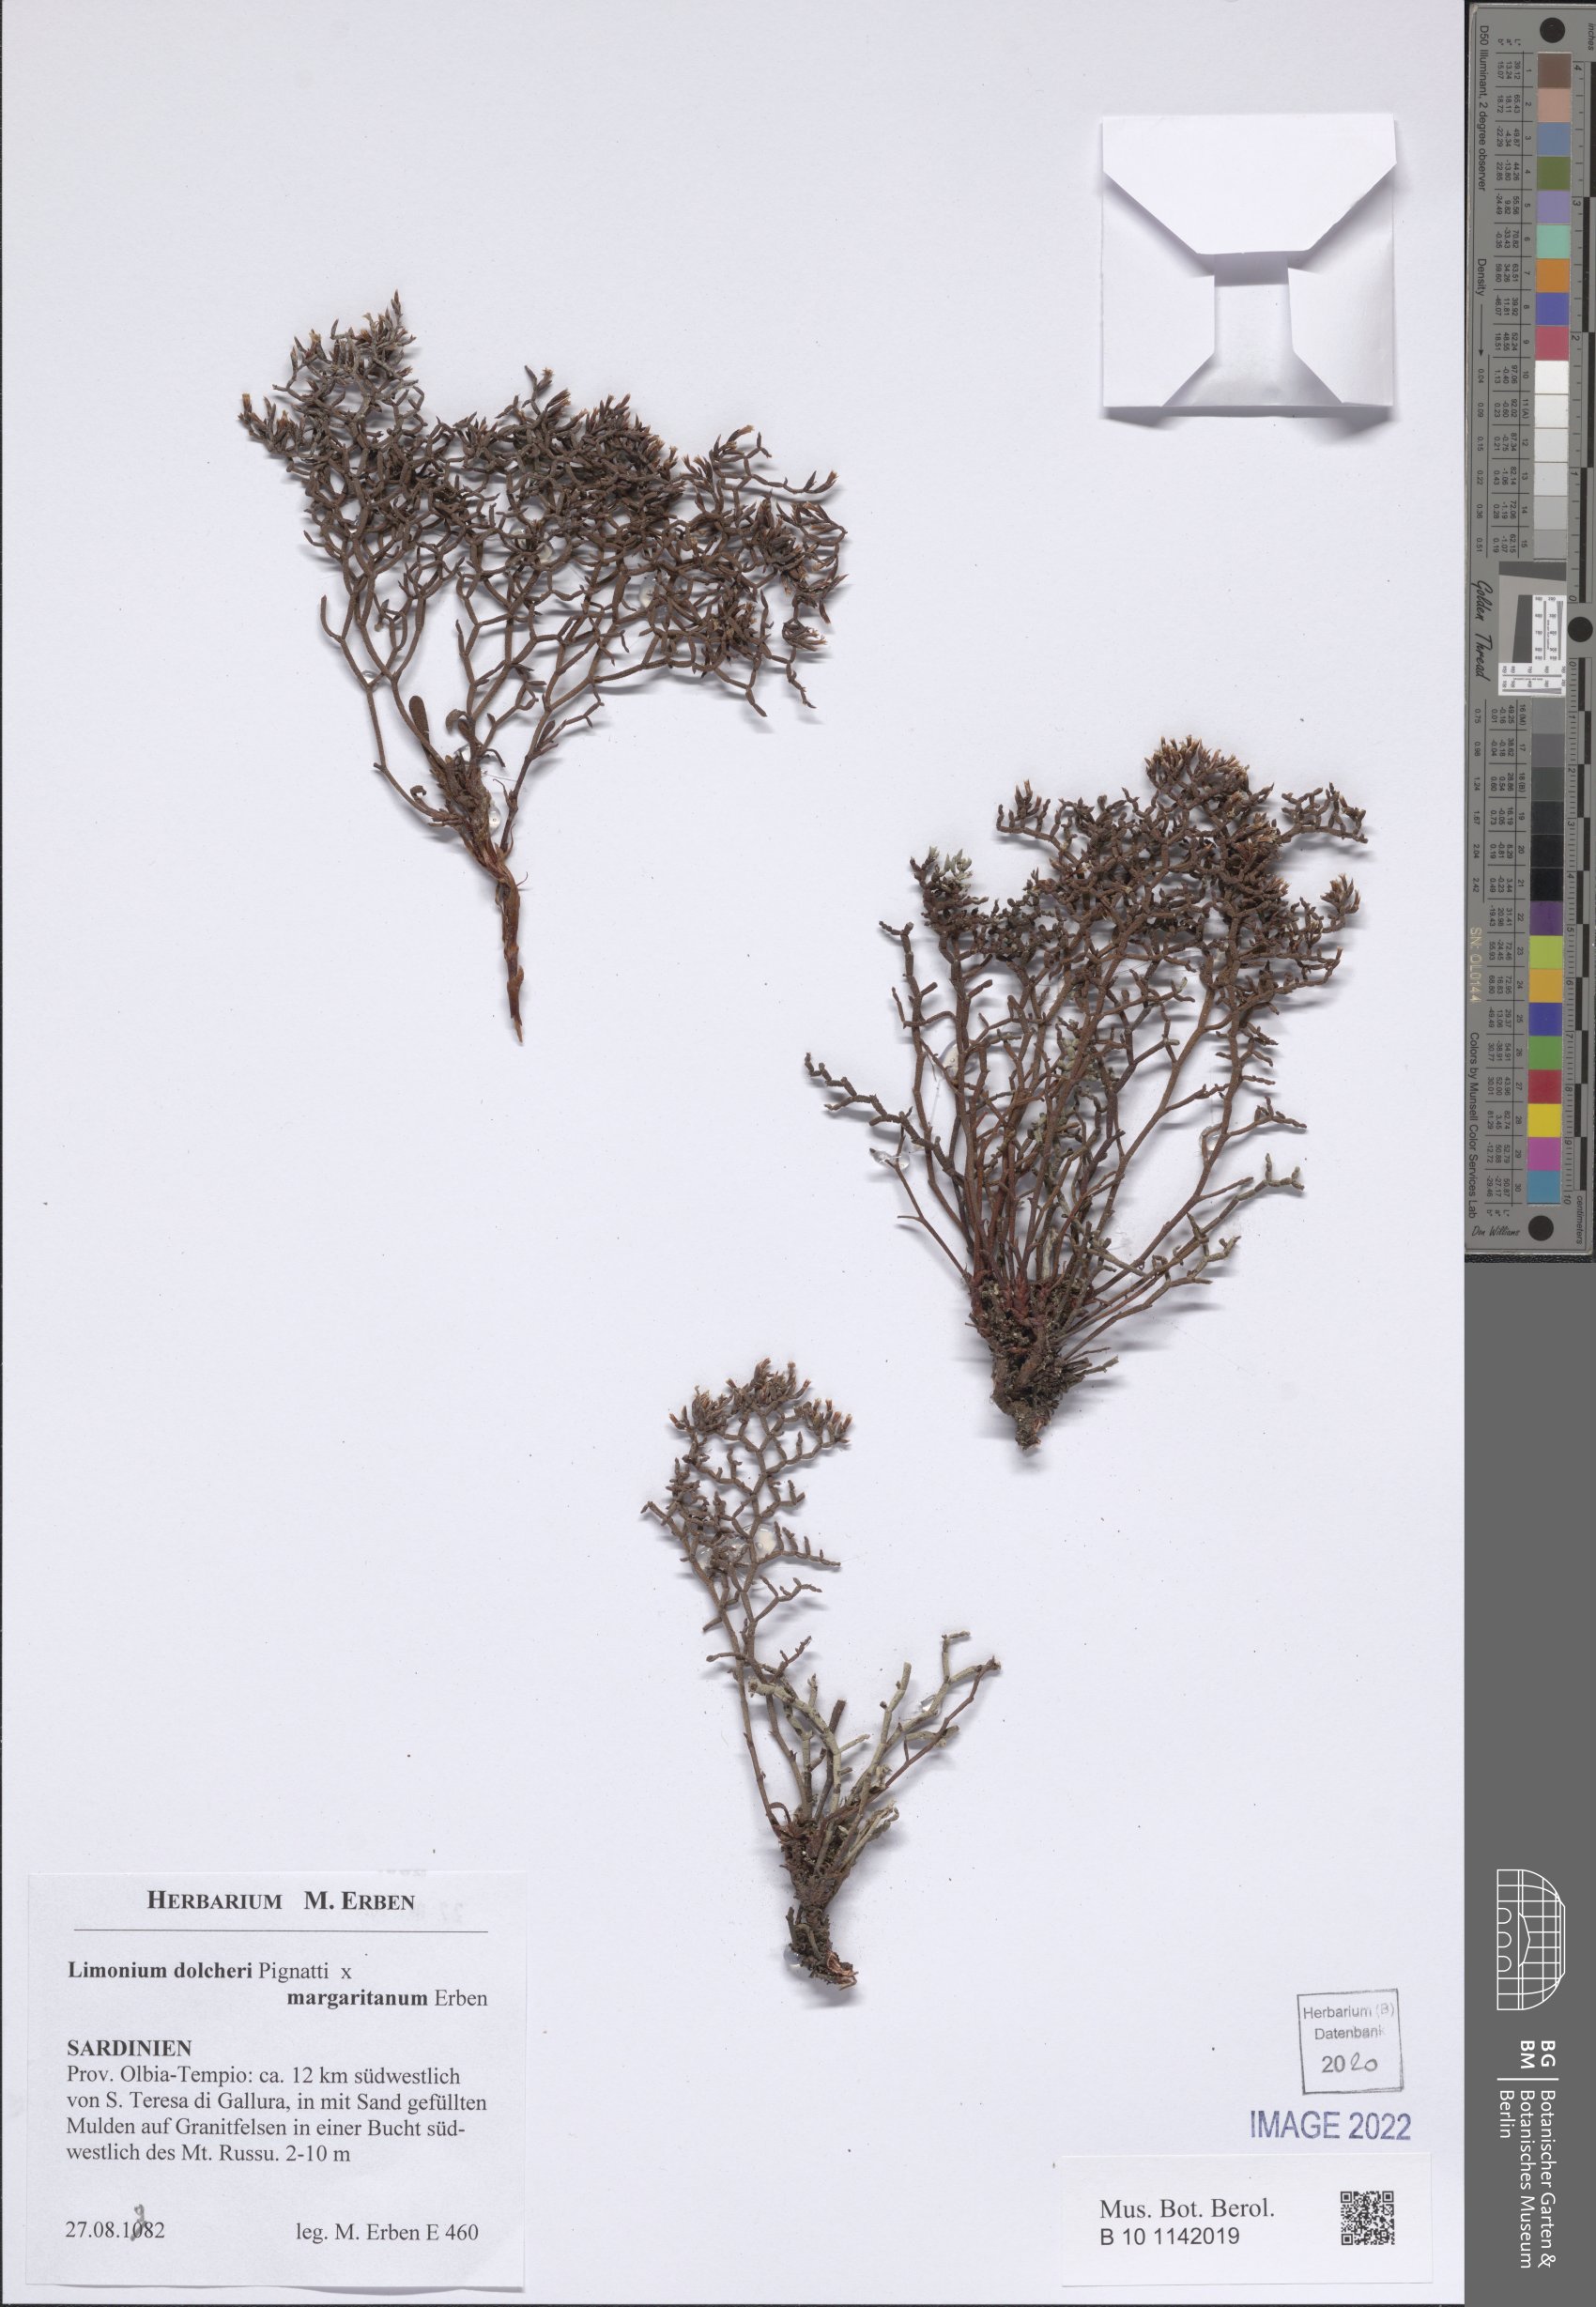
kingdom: Plantae
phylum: Tracheophyta
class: Magnoliopsida
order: Caryophyllales
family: Plumbaginaceae
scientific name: Plumbaginaceae
